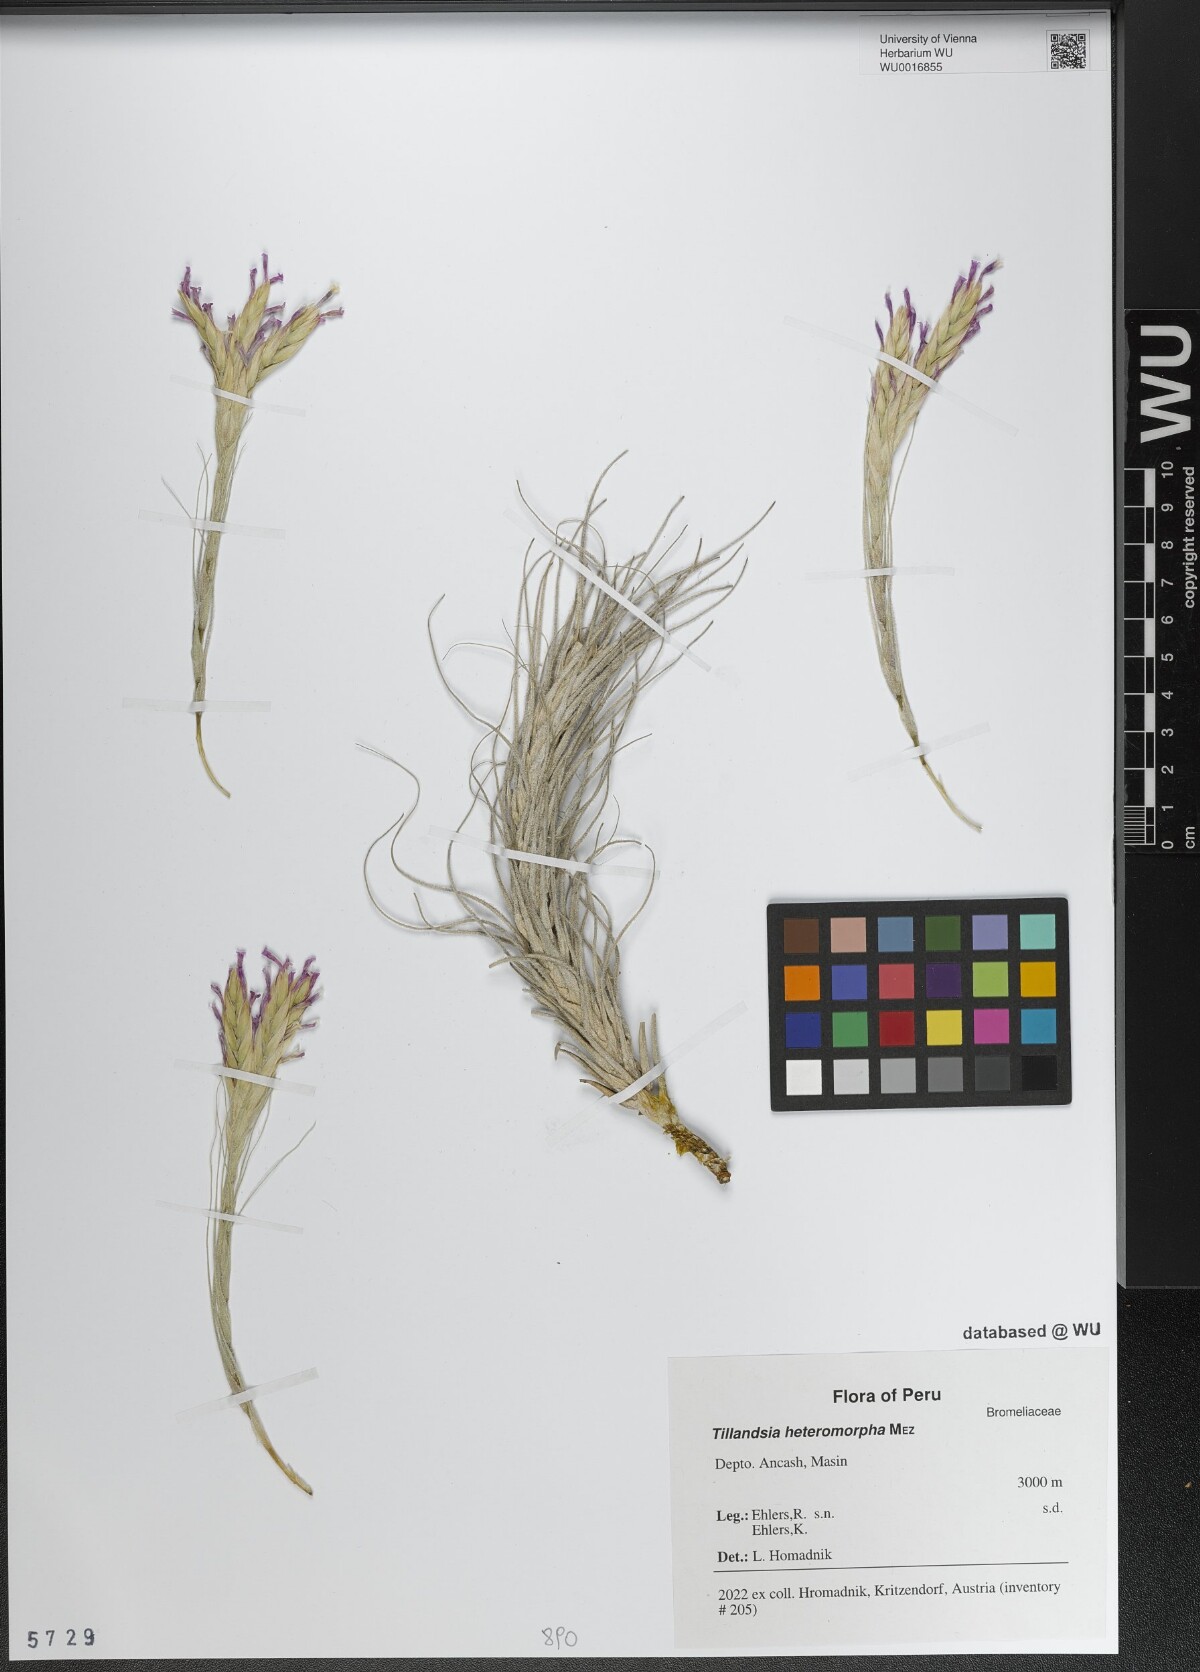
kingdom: Plantae
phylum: Tracheophyta
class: Liliopsida
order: Poales
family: Bromeliaceae
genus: Tillandsia
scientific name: Tillandsia heteromorpha
